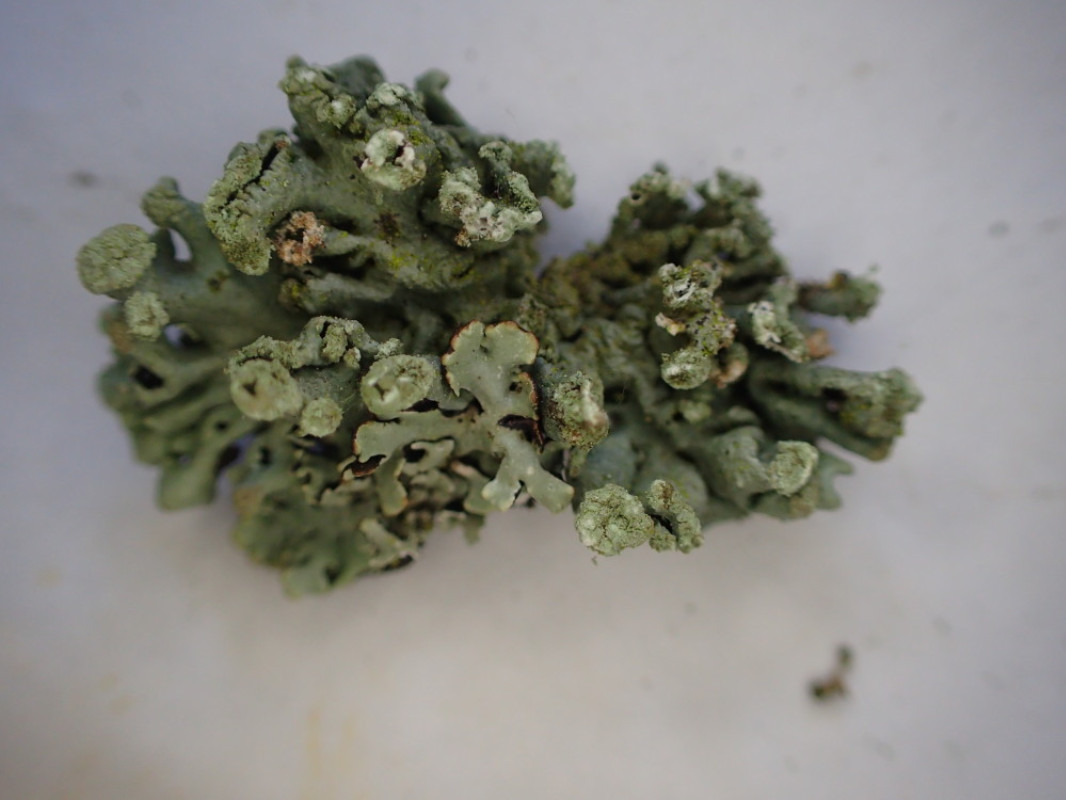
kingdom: Fungi
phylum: Ascomycota
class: Lecanoromycetes
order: Lecanorales
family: Parmeliaceae
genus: Hypogymnia
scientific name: Hypogymnia tubulosa
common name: finger-kvistlav
